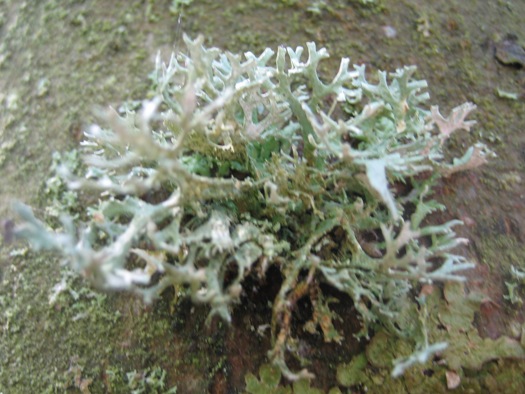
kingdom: Fungi
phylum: Ascomycota
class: Lecanoromycetes
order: Lecanorales
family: Parmeliaceae
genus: Evernia
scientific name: Evernia prunastri
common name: almindelig slåenlav
